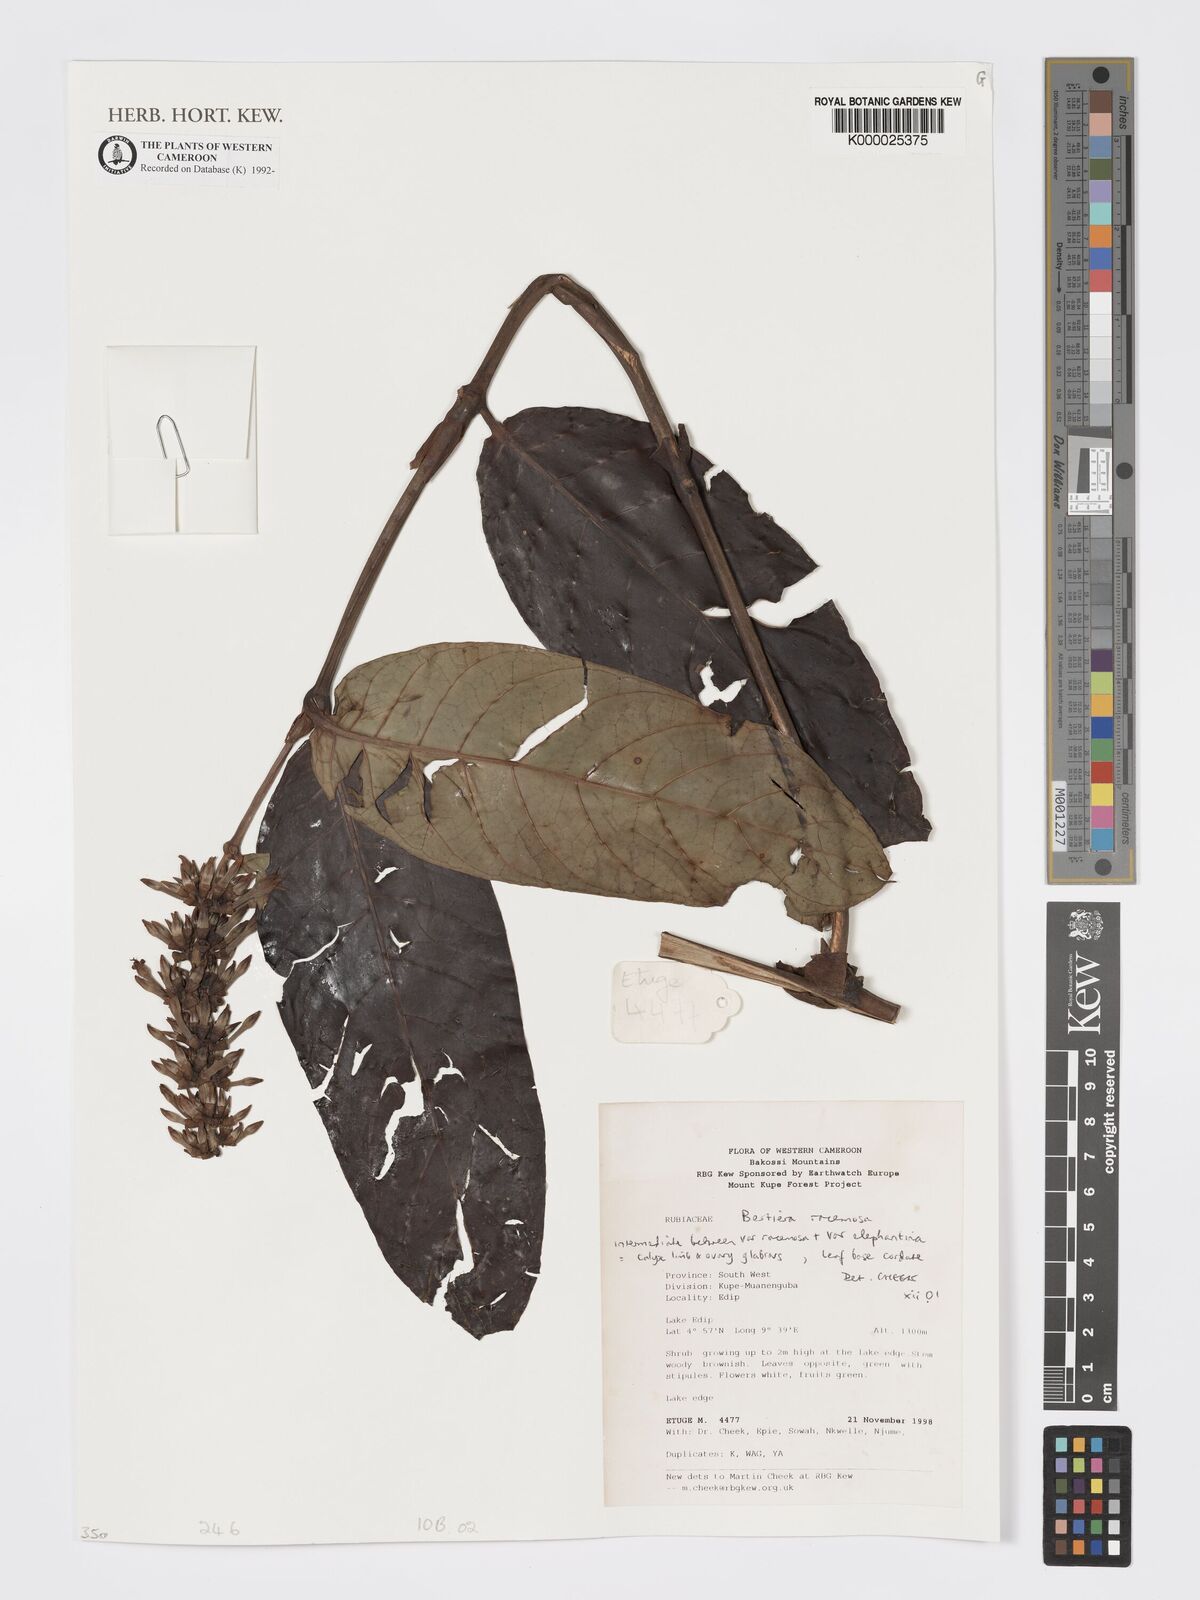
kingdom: Plantae
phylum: Tracheophyta
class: Magnoliopsida
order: Gentianales
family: Rubiaceae
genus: Bertiera
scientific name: Bertiera racemosa
